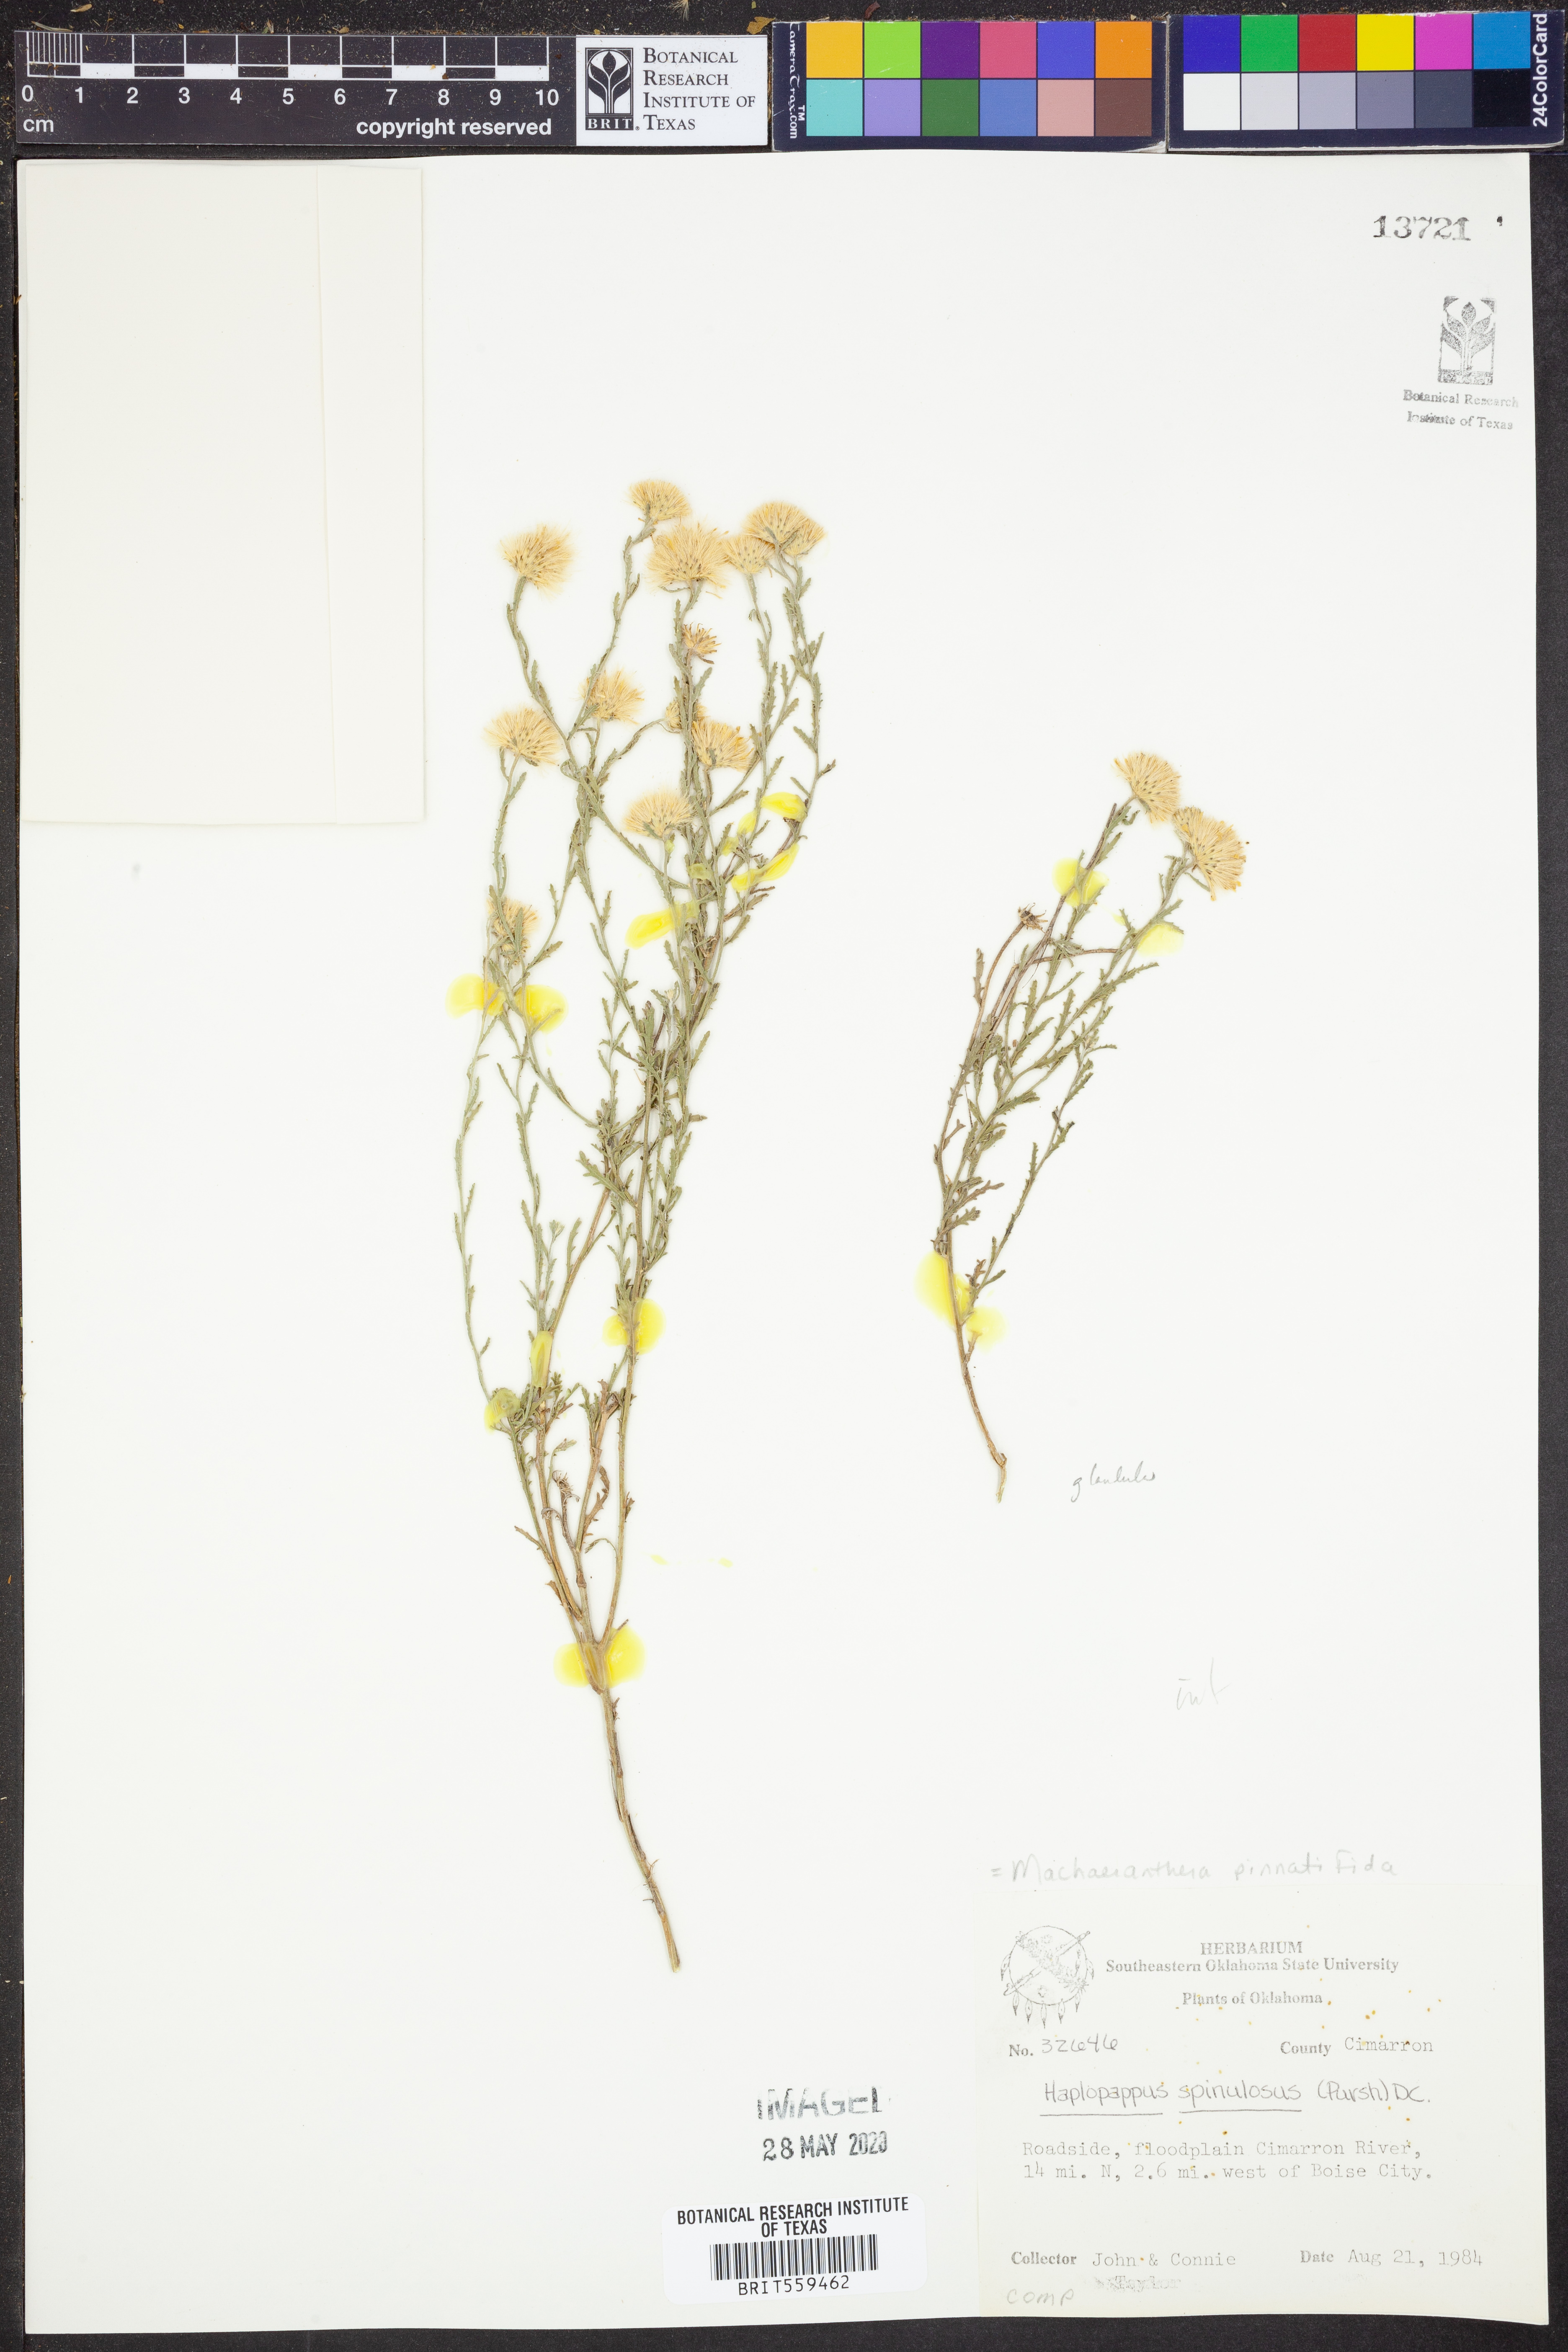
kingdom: Plantae
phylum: Tracheophyta
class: Magnoliopsida
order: Asterales
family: Asteraceae
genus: Xanthisma
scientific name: Xanthisma spinulosum
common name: Spiny goldenweed
